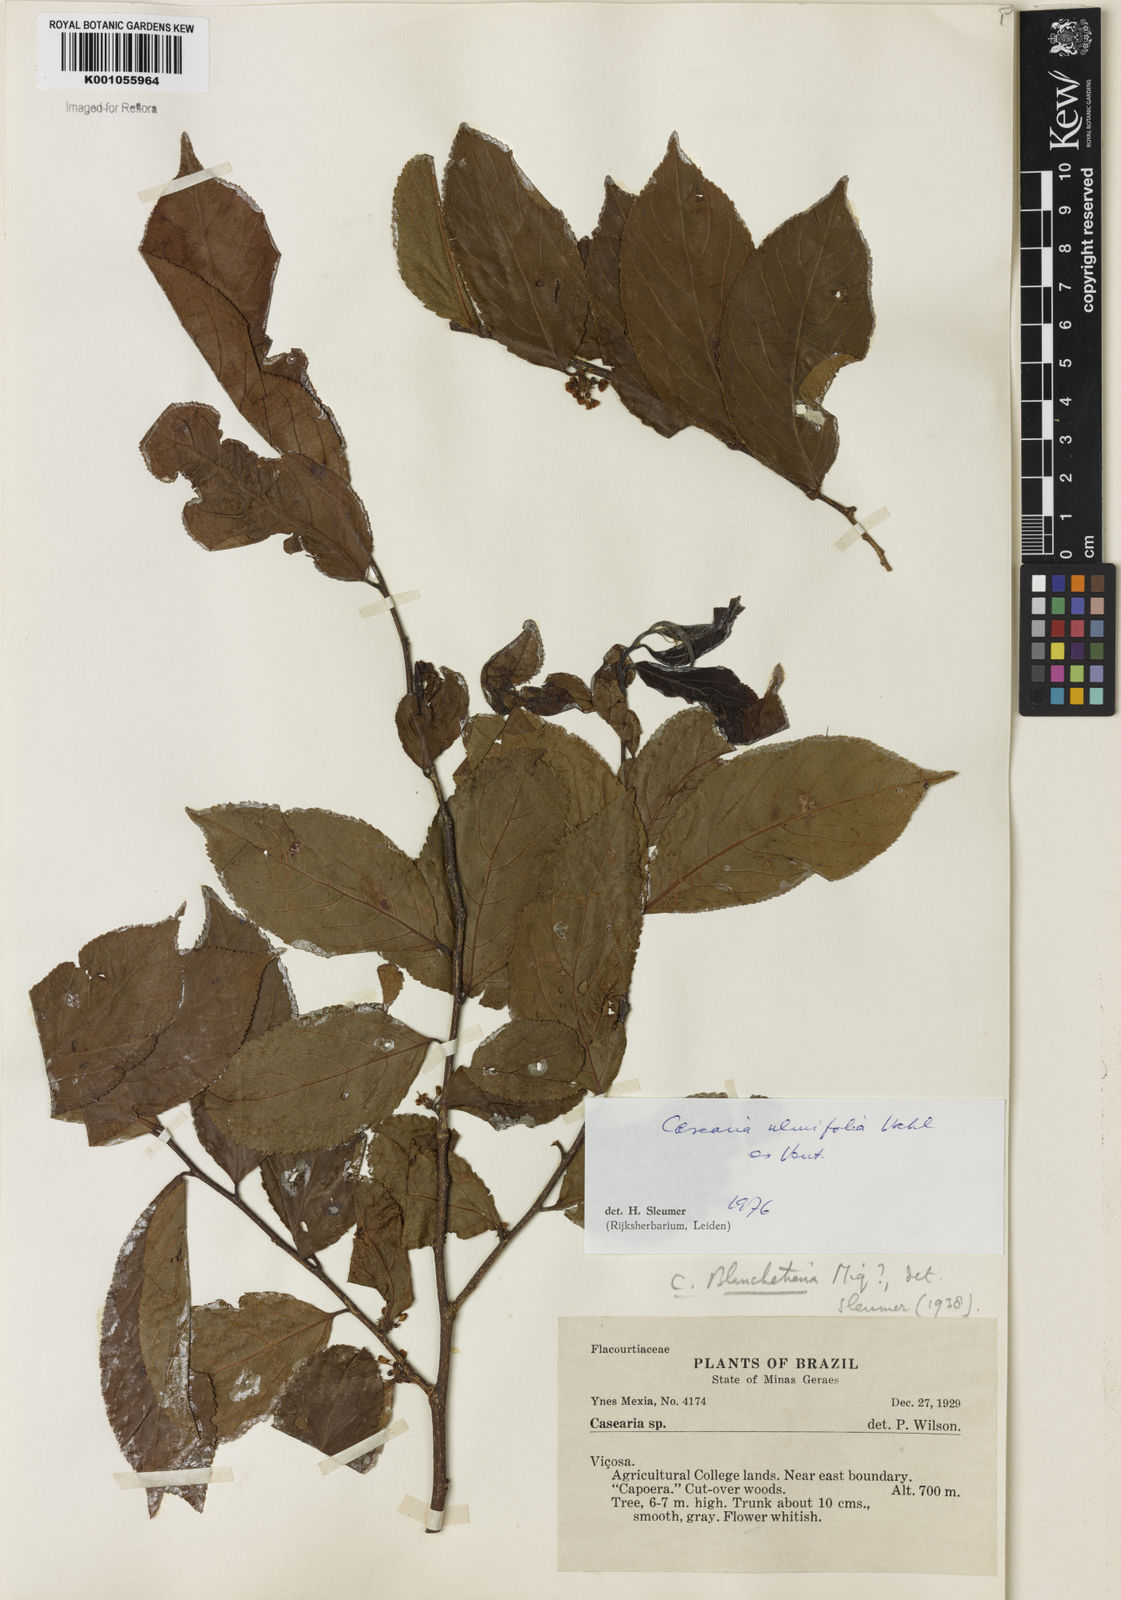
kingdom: Plantae
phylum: Tracheophyta
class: Magnoliopsida
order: Malpighiales
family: Salicaceae
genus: Casearia
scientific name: Casearia ulmifolia
